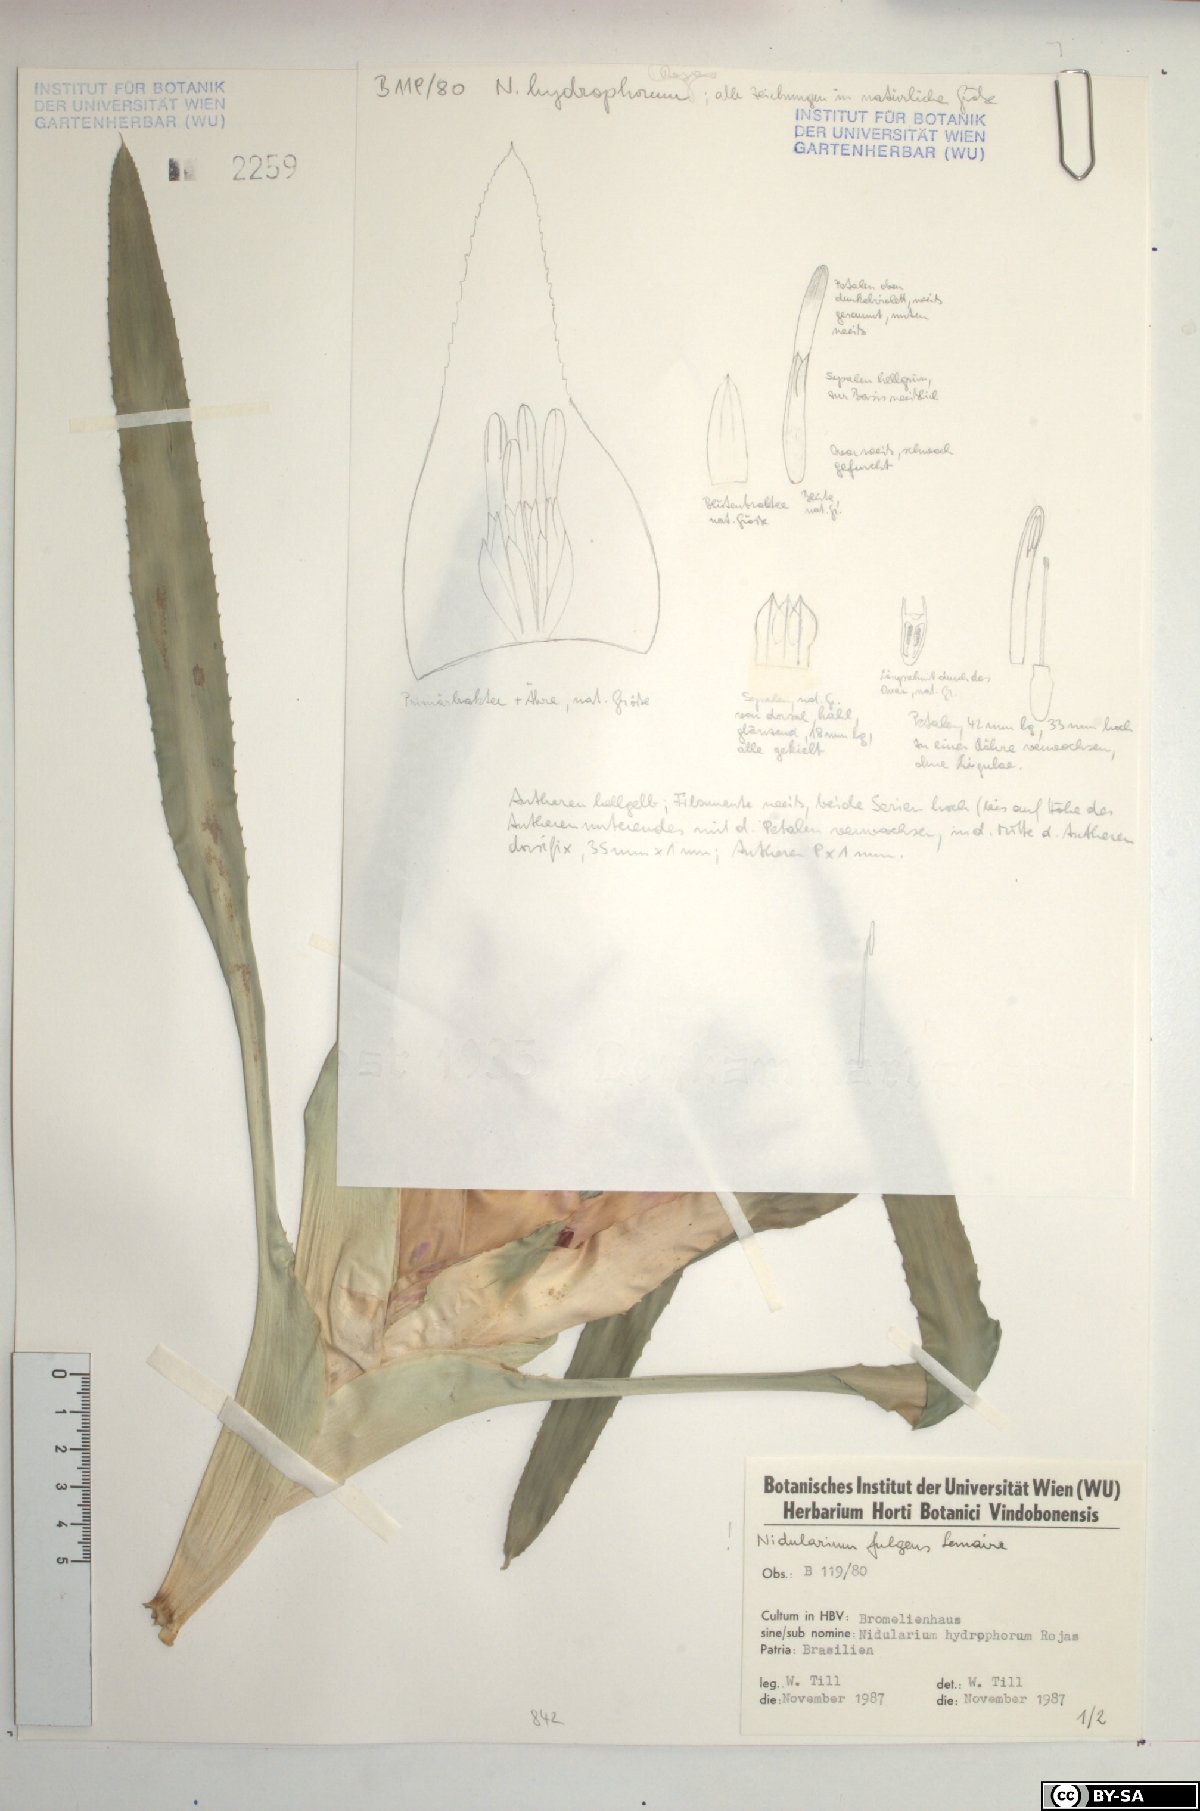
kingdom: Plantae
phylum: Tracheophyta
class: Liliopsida
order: Poales
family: Bromeliaceae
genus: Nidularium
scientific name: Nidularium fulgens
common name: Blushing bromeliad
